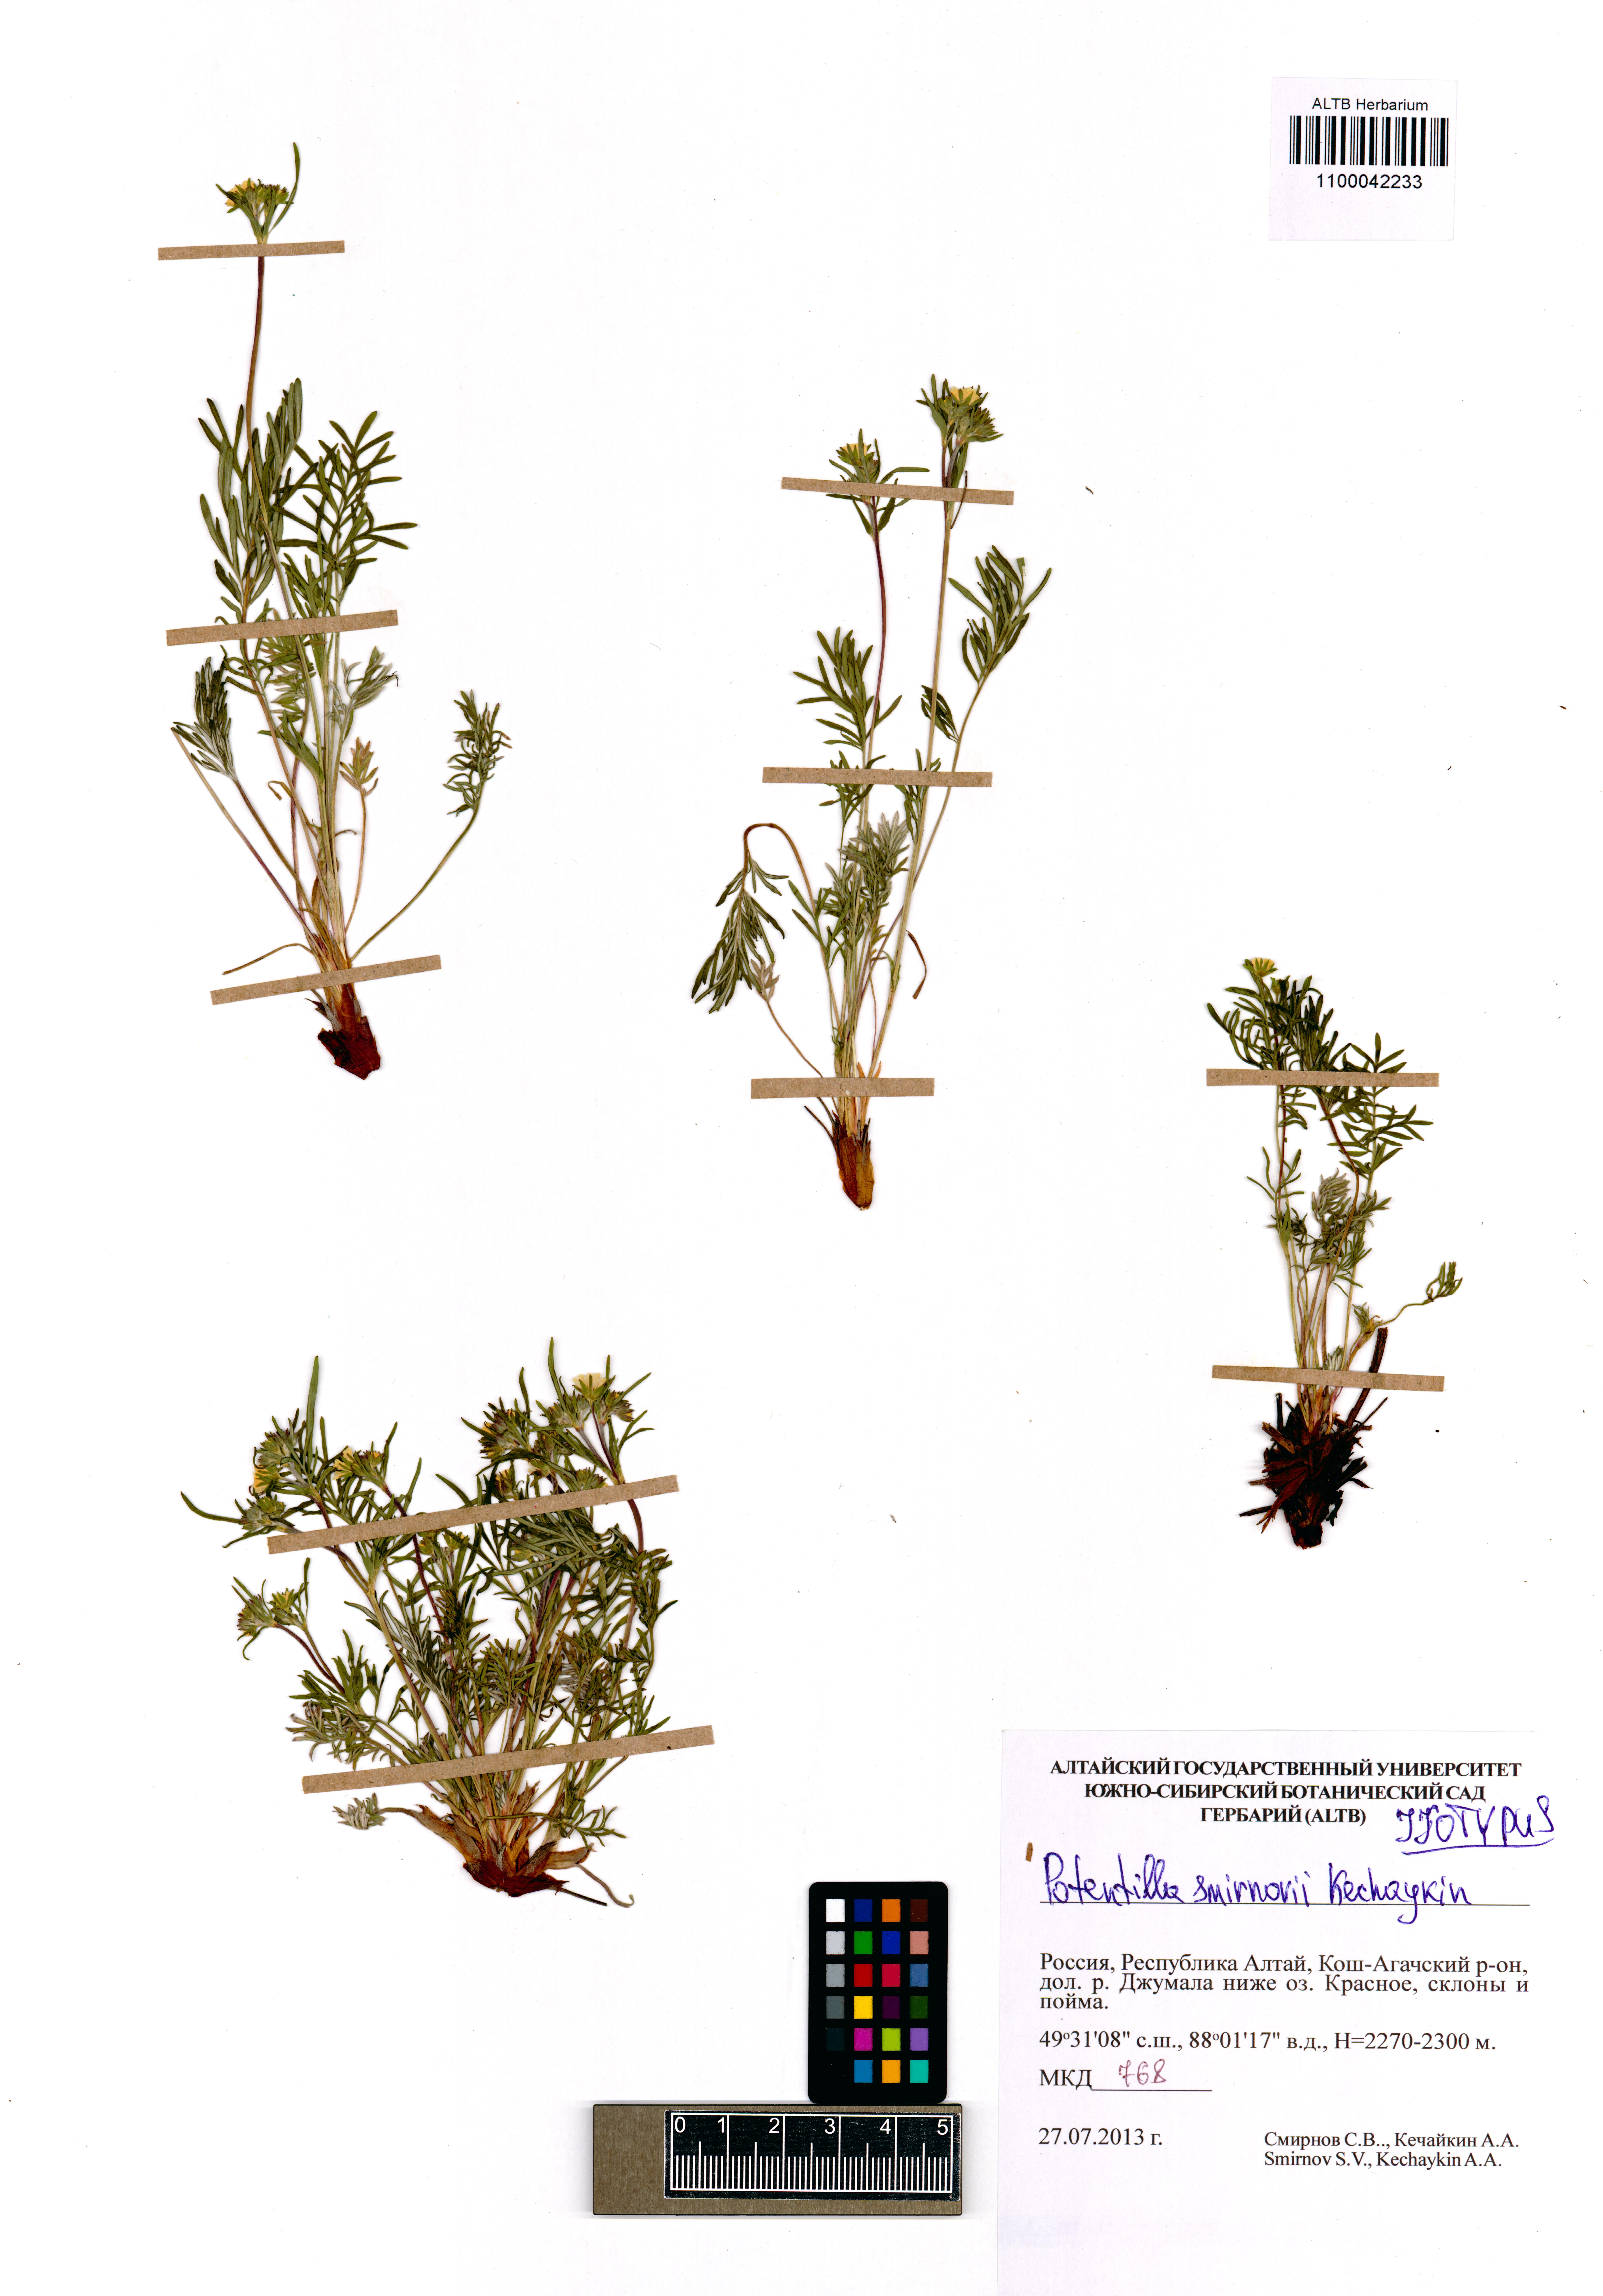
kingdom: Plantae
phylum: Tracheophyta
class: Magnoliopsida
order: Rosales
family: Rosaceae
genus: Potentilla
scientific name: Potentilla smirnovii
